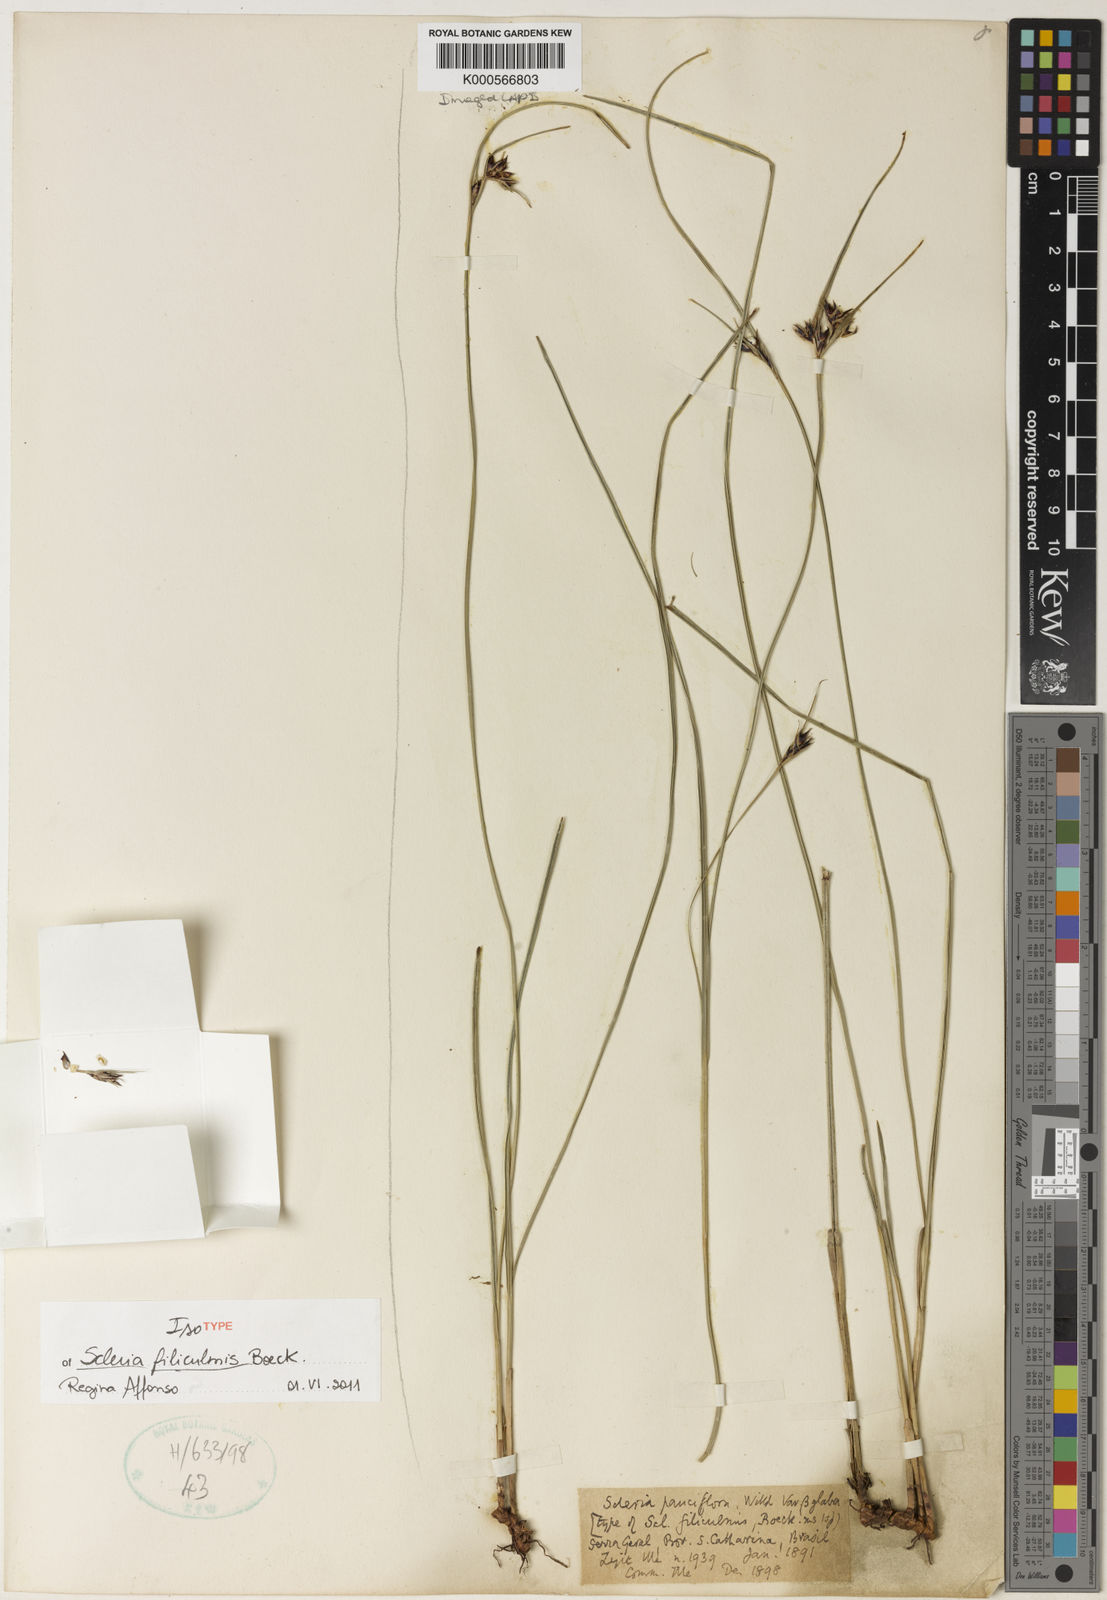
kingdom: Plantae
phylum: Tracheophyta
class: Liliopsida
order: Poales
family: Cyperaceae
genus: Scleria
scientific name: Scleria ciliata
